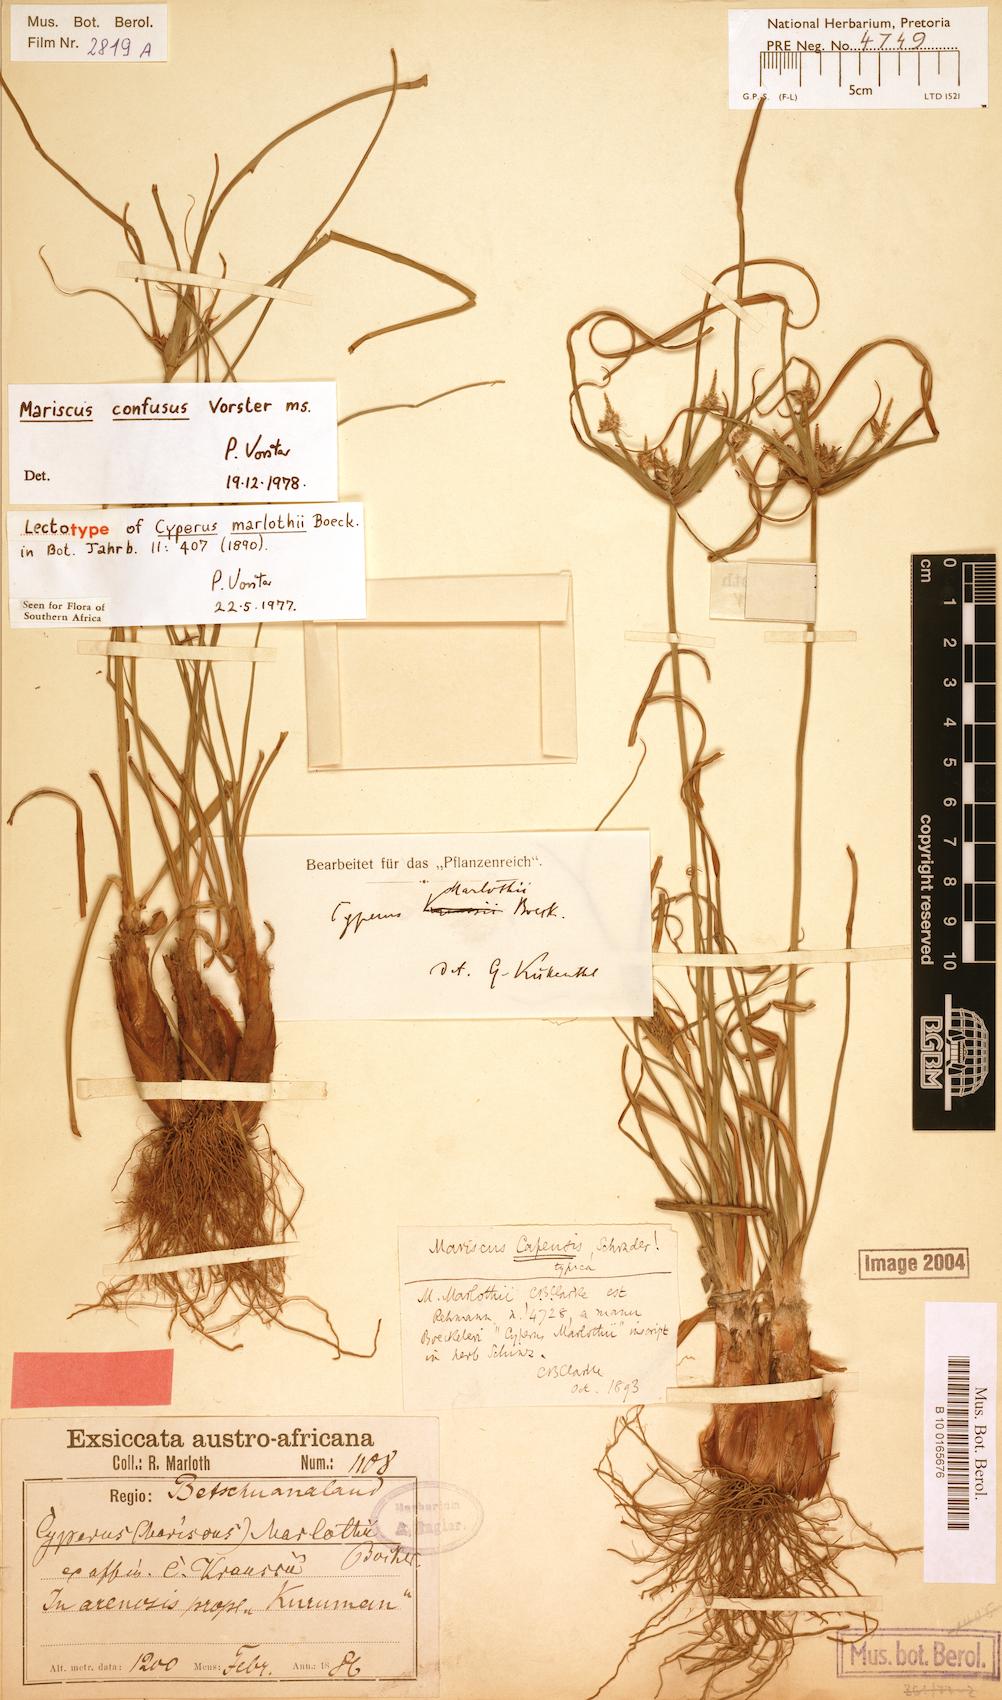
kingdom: Plantae
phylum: Tracheophyta
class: Liliopsida
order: Poales
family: Cyperaceae
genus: Cyperus
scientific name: Cyperus marlothii
